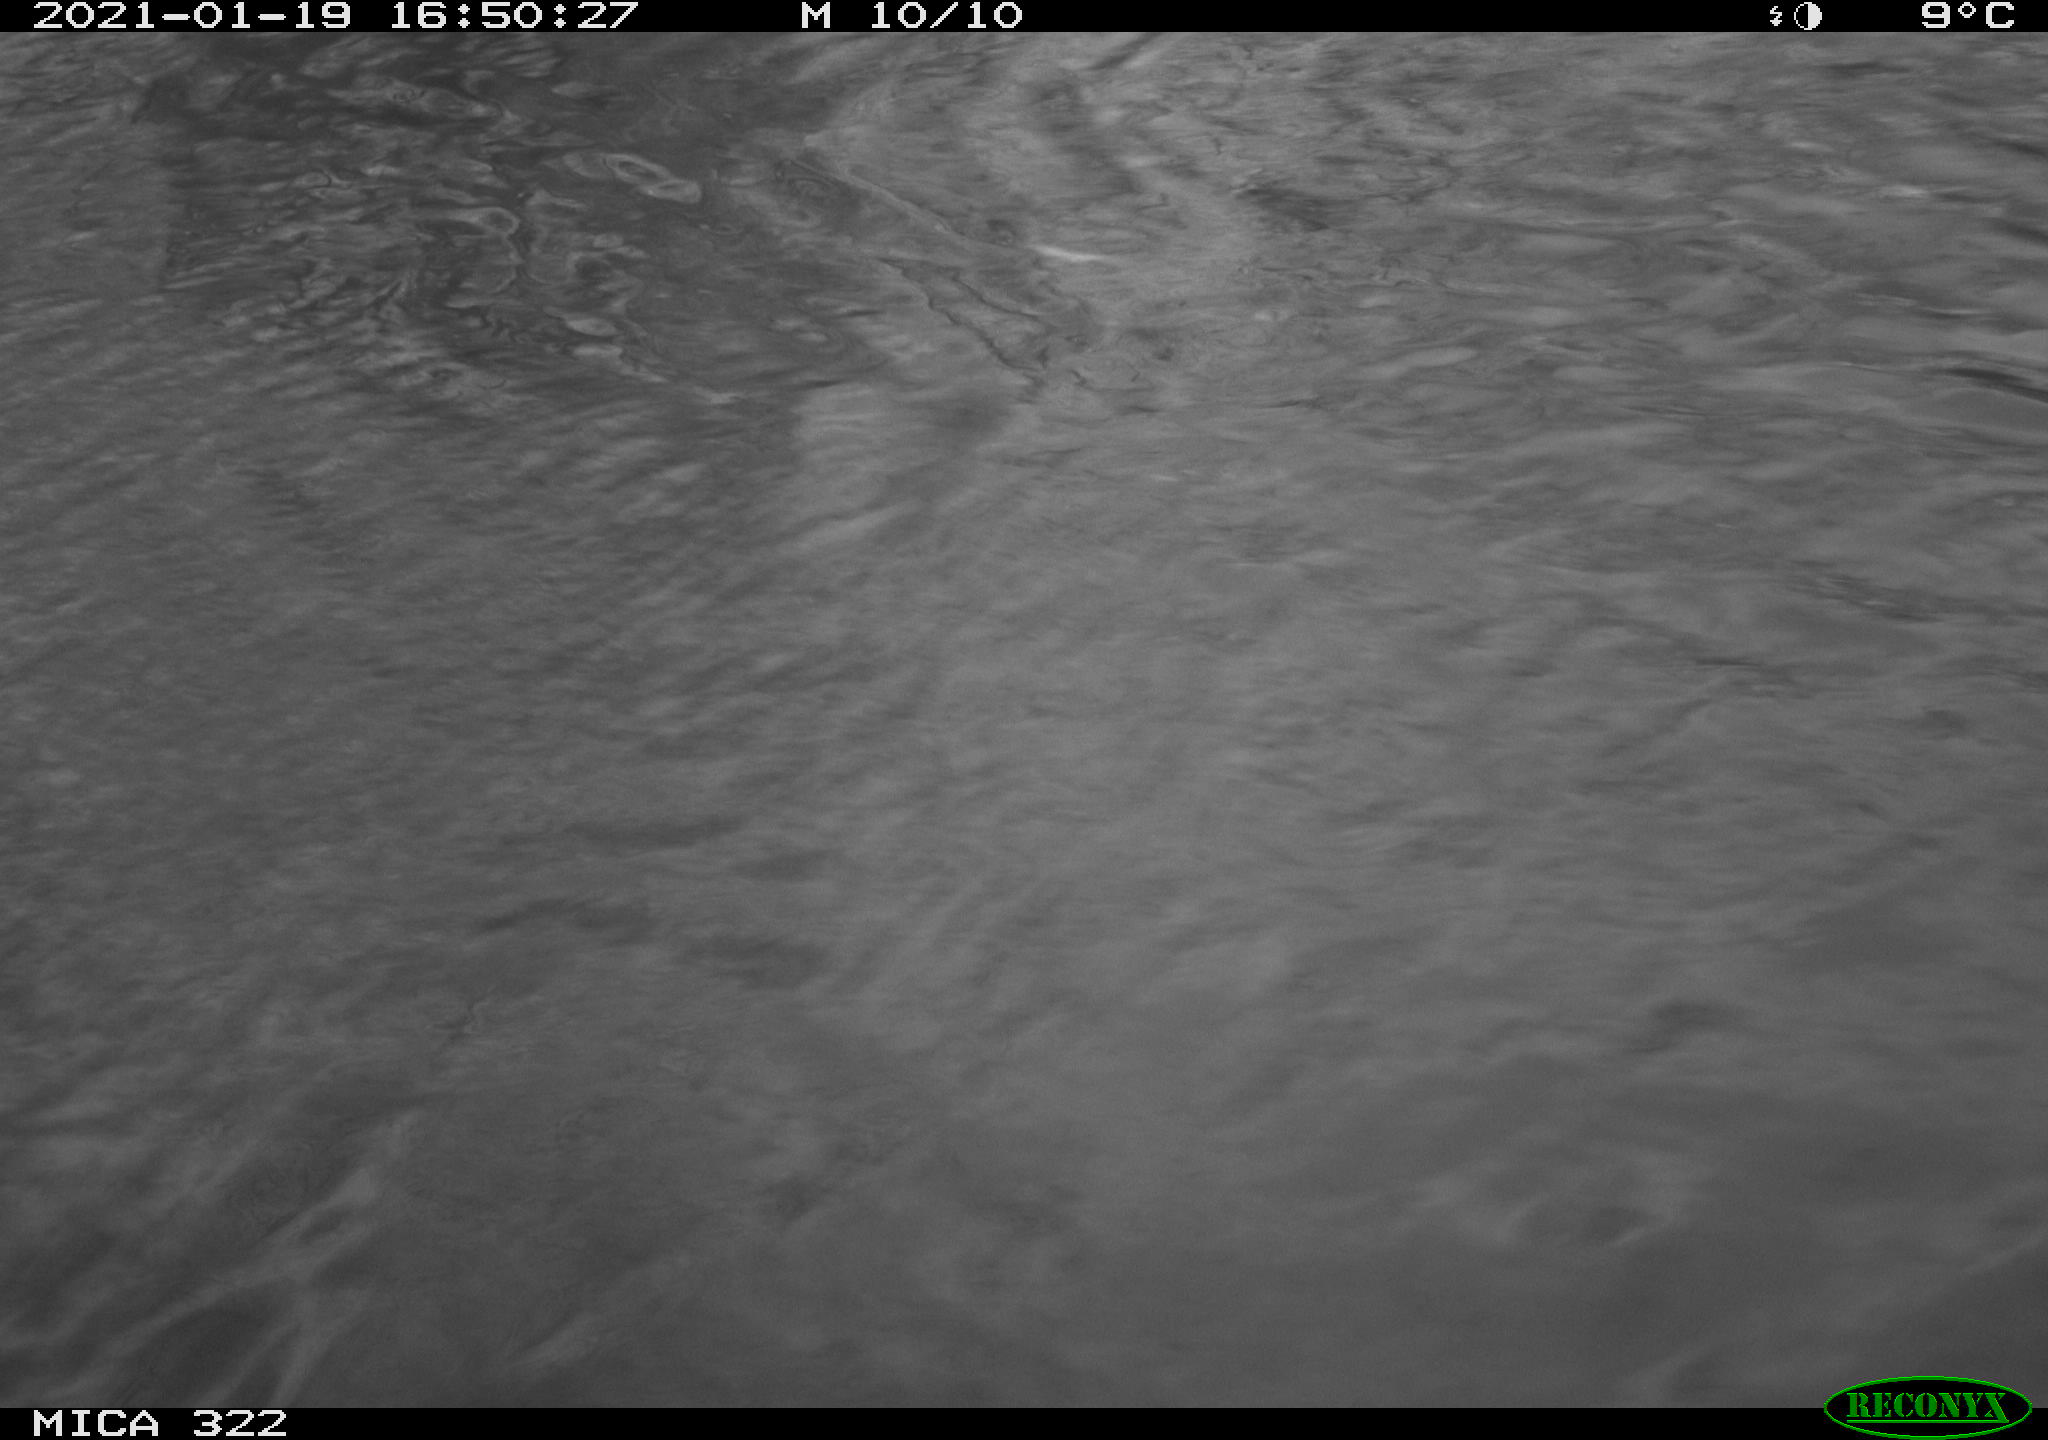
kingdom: Animalia
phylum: Chordata
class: Aves
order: Podicipediformes
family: Podicipedidae
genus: Tachybaptus
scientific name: Tachybaptus ruficollis
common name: Little grebe
